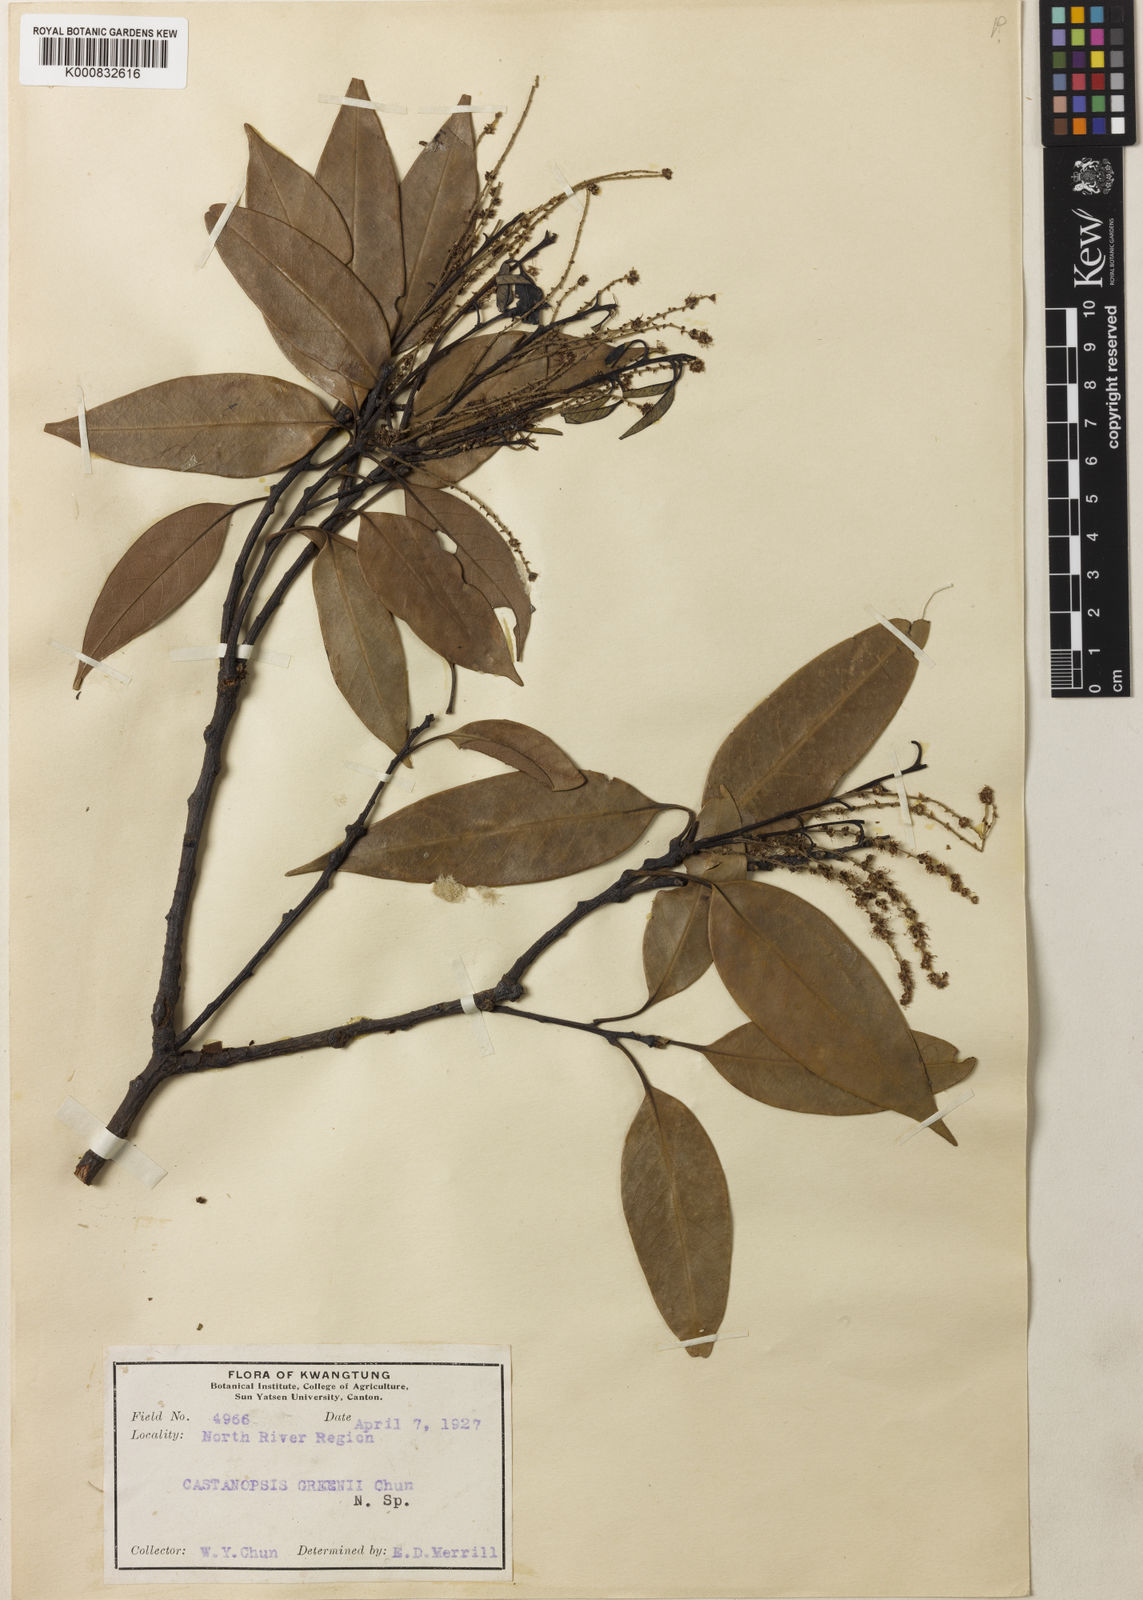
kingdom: Plantae
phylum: Tracheophyta
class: Magnoliopsida
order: Fagales
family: Fagaceae
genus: Castanopsis
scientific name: Castanopsis kawakamii
